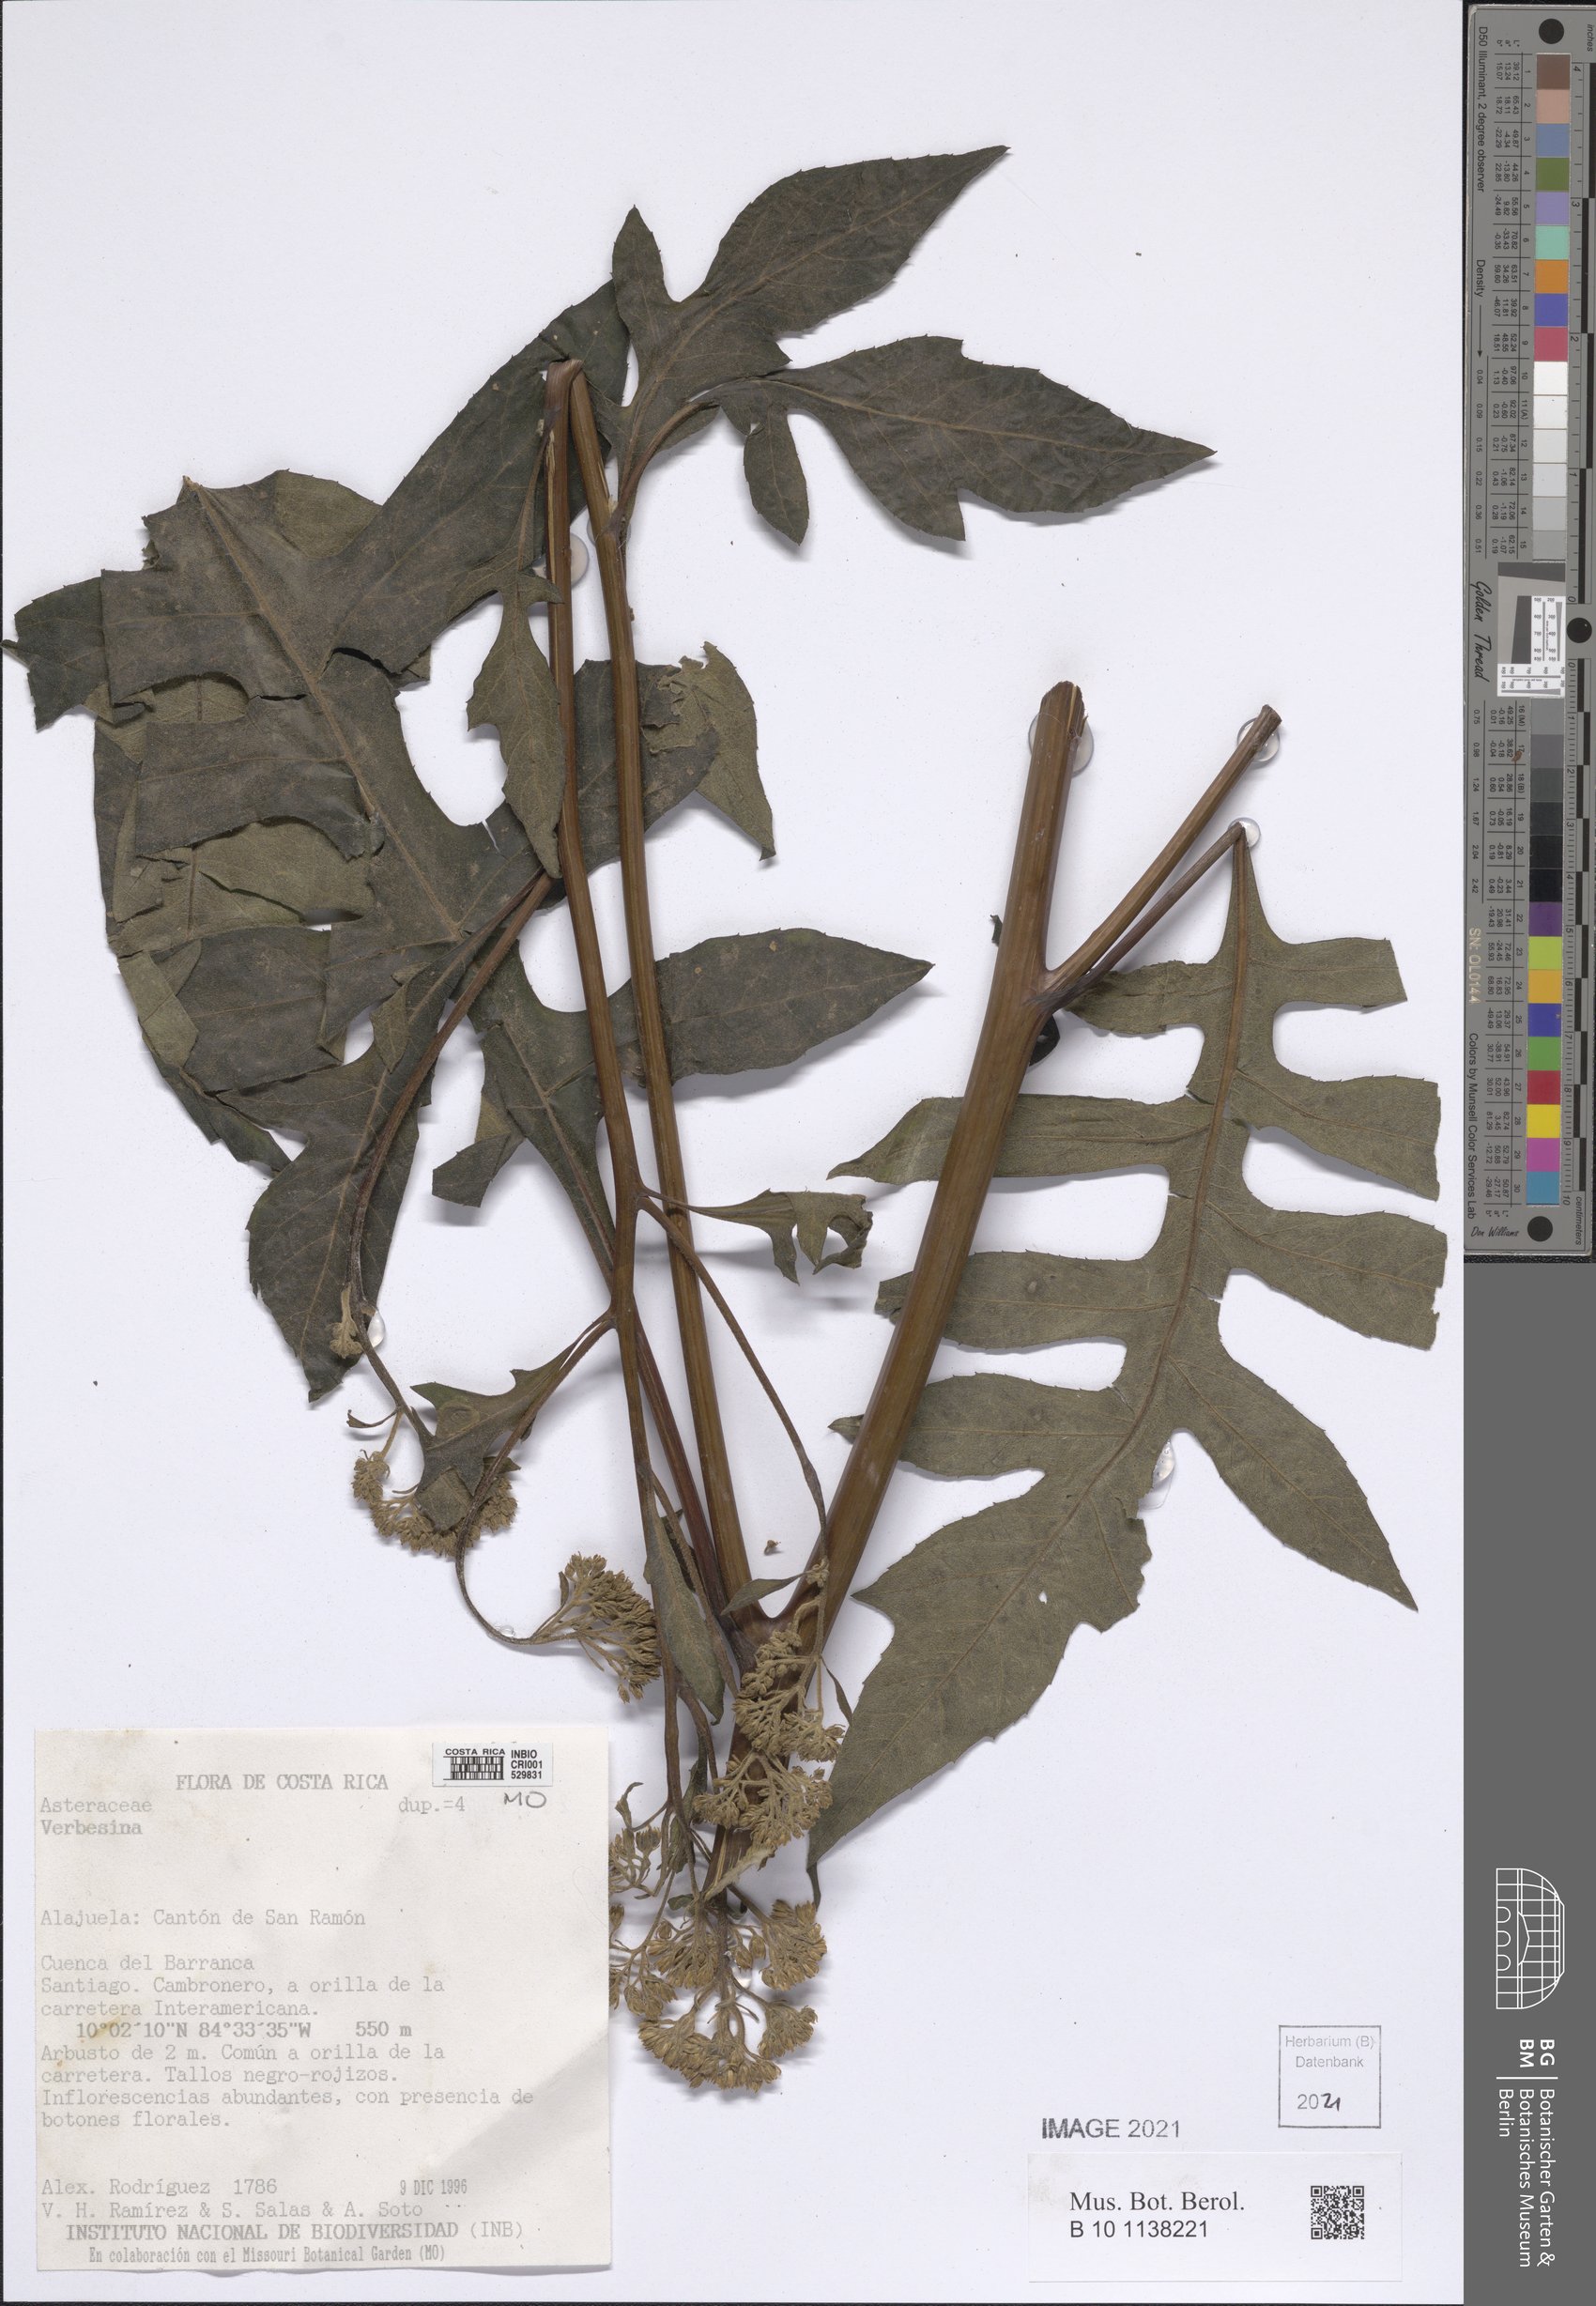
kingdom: Plantae
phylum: Tracheophyta
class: Magnoliopsida
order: Asterales
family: Asteraceae
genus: Verbesina
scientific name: Verbesina myriocephala
